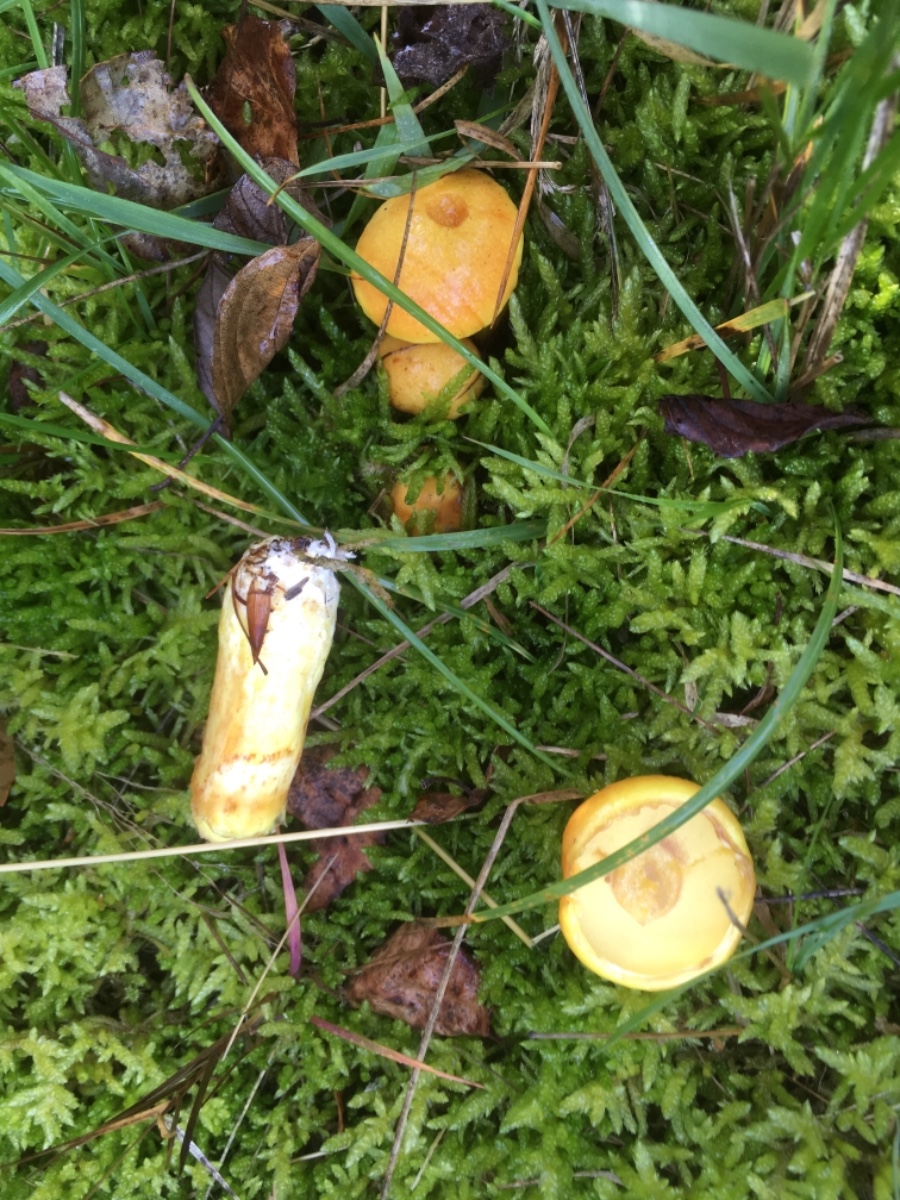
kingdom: Fungi
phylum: Basidiomycota
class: Agaricomycetes
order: Boletales
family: Suillaceae
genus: Suillus
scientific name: Suillus grevillei
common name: lærke-slimrørhat
